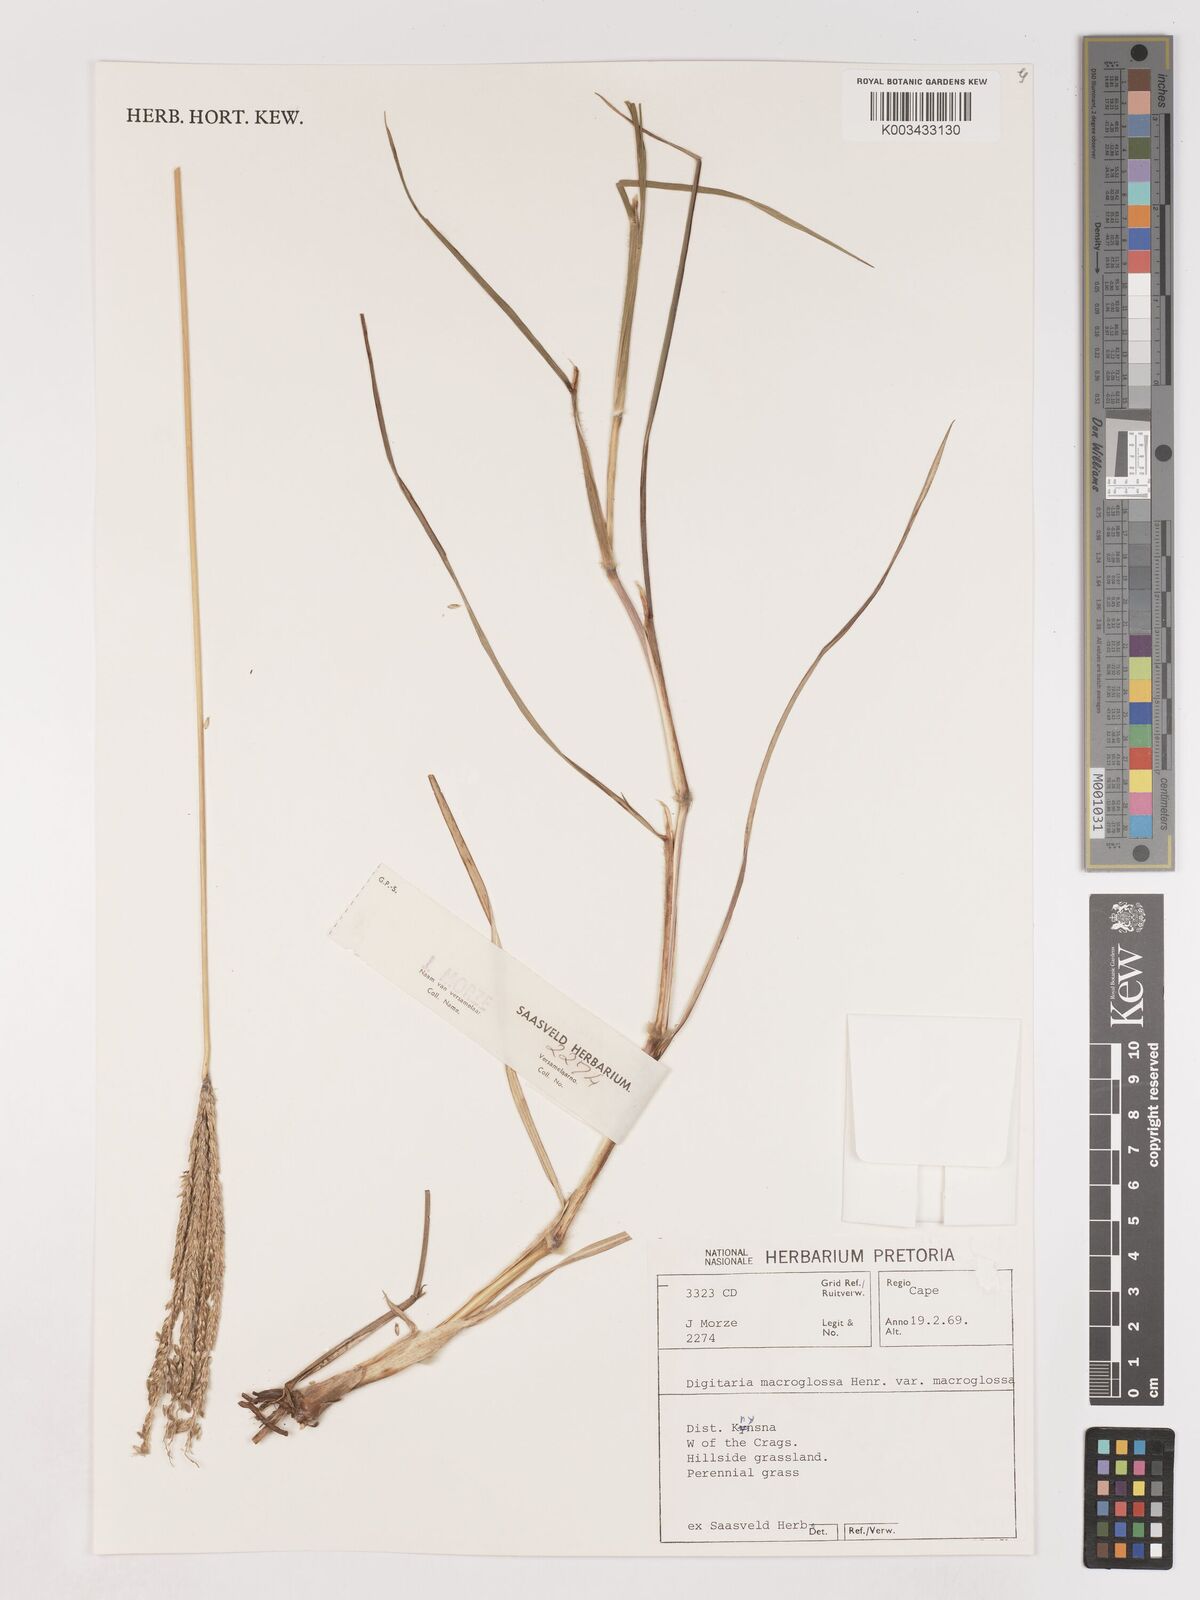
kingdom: Plantae
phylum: Tracheophyta
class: Liliopsida
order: Poales
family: Poaceae
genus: Digitaria
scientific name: Digitaria natalensis
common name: Coast finger grass
